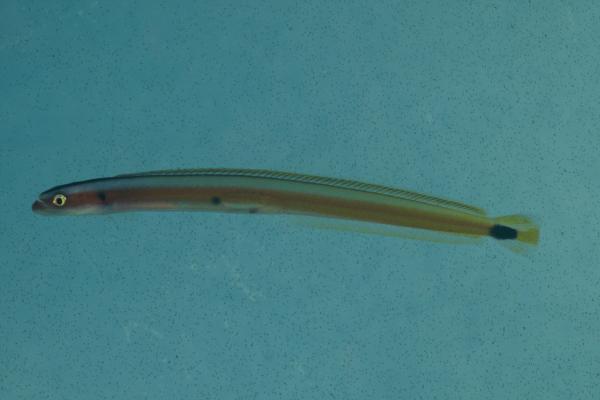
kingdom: Animalia
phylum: Chordata
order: Perciformes
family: Microdesmidae
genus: Gunnellichthys
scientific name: Gunnellichthys curiosus
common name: Curious wormfish
